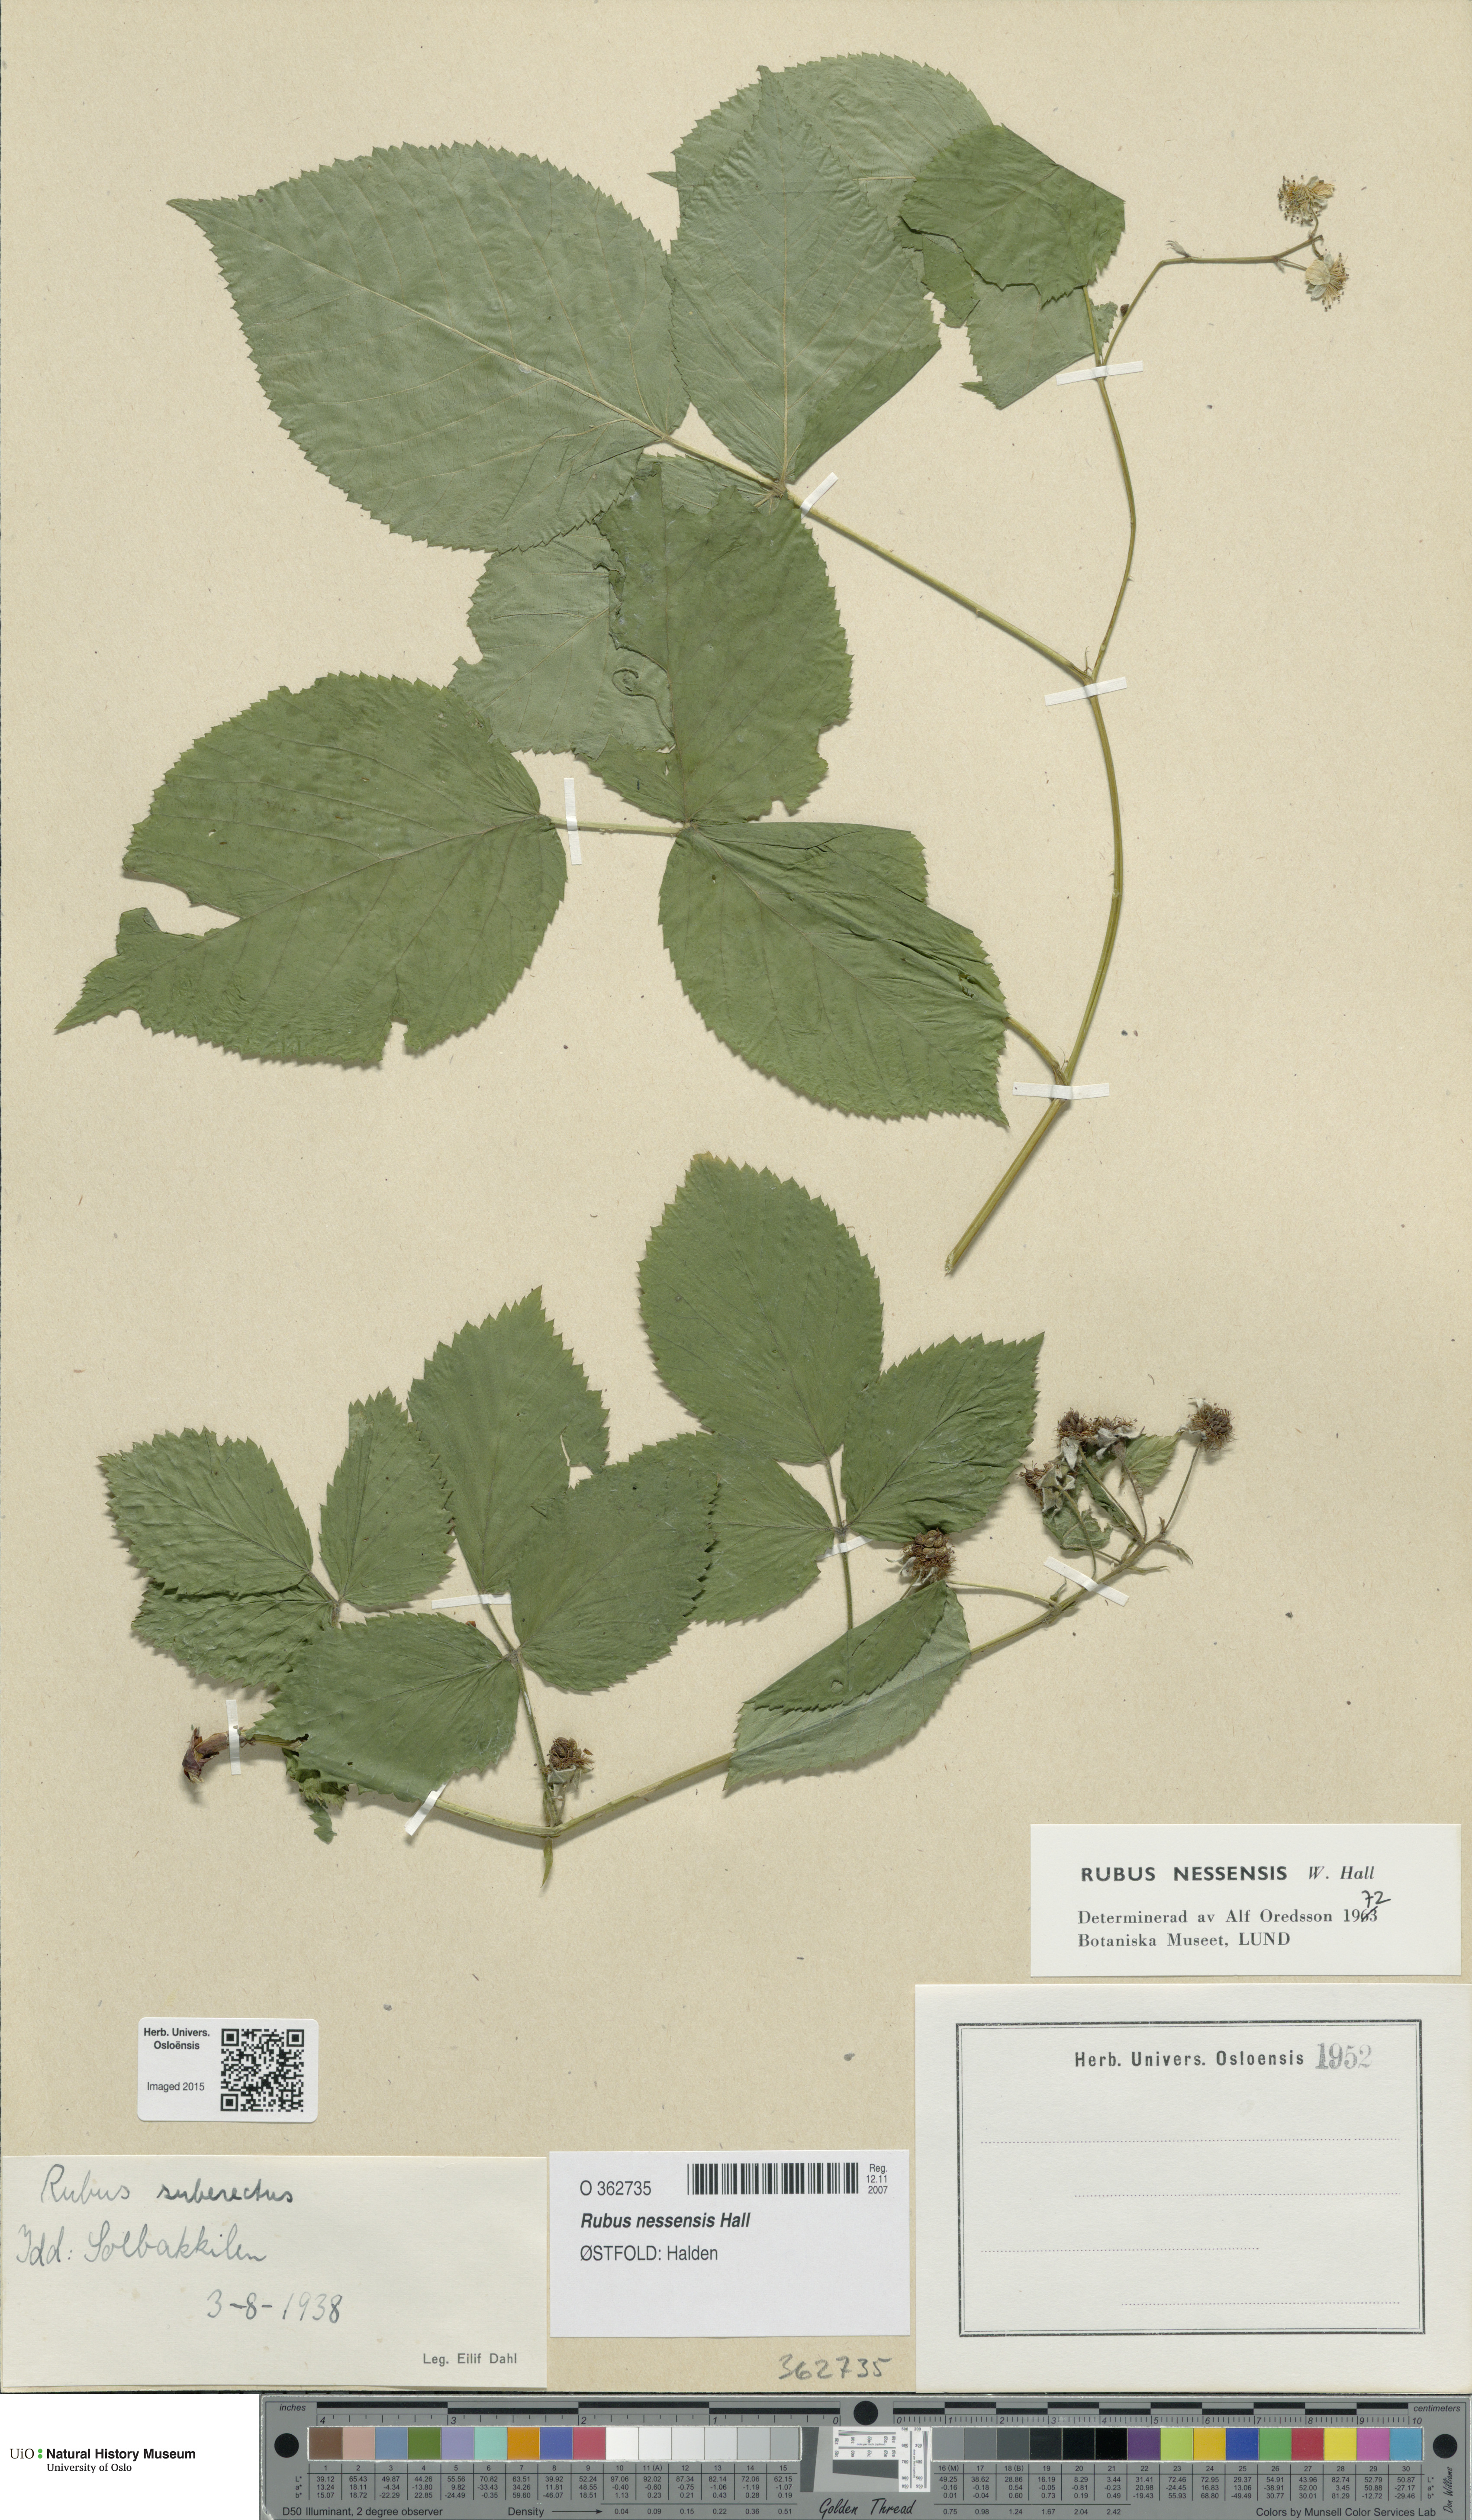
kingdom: Plantae
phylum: Tracheophyta
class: Magnoliopsida
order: Rosales
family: Rosaceae
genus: Rubus
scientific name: Rubus polonicus
